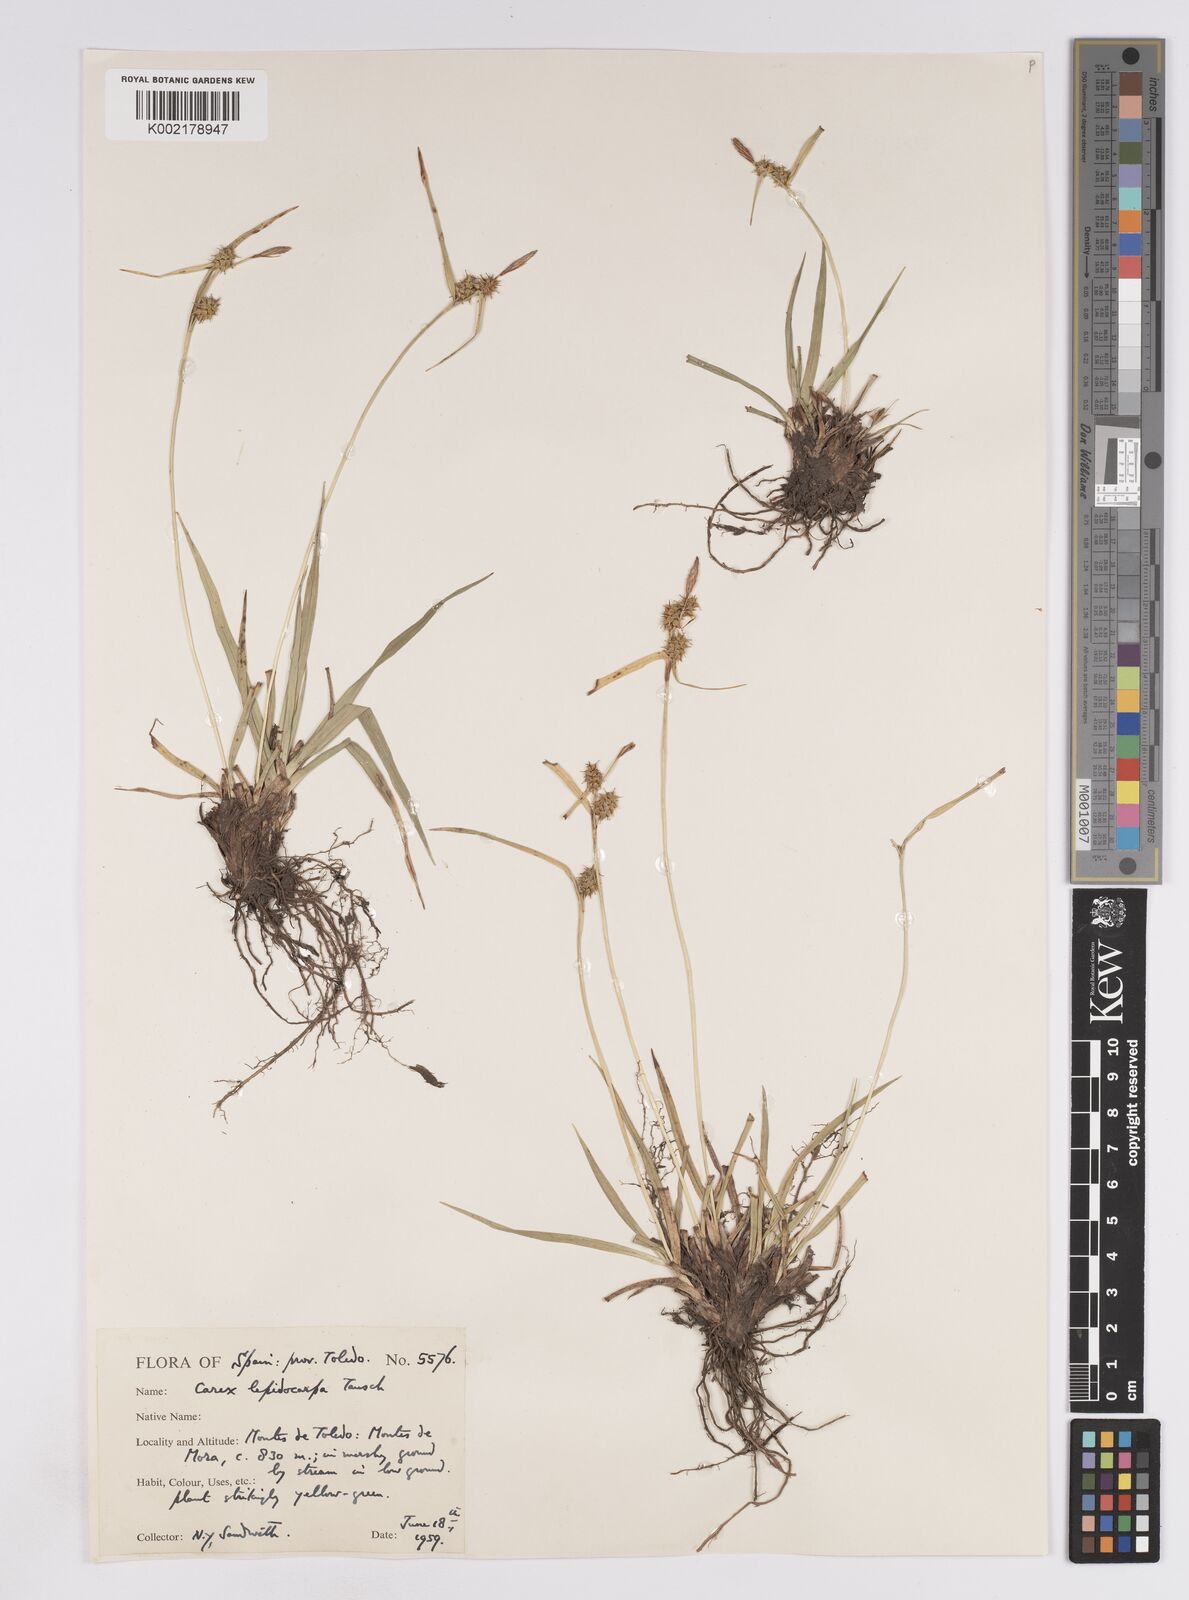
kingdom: Plantae
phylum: Tracheophyta
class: Liliopsida
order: Poales
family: Cyperaceae
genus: Carex
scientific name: Carex lepidocarpa
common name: Long-stalked yellow-sedge
